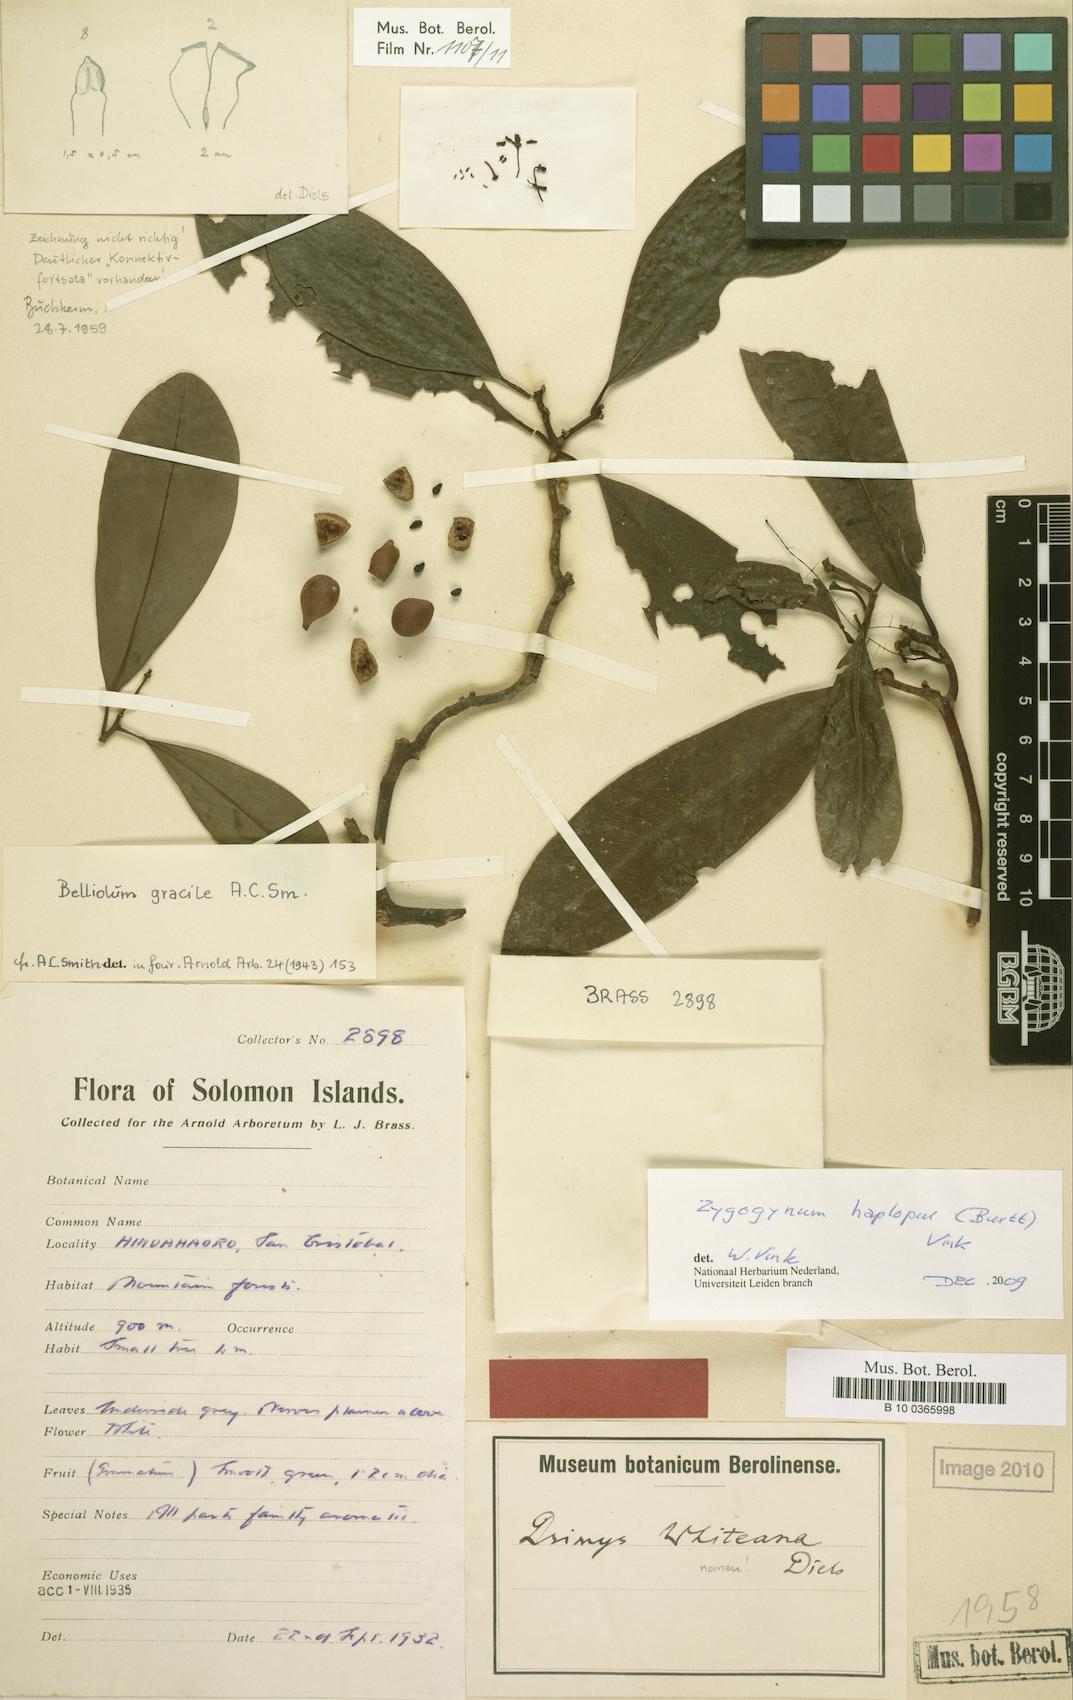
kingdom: Plantae
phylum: Tracheophyta
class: Magnoliopsida
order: Canellales
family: Winteraceae
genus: Zygogynum
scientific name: Zygogynum haplopus
